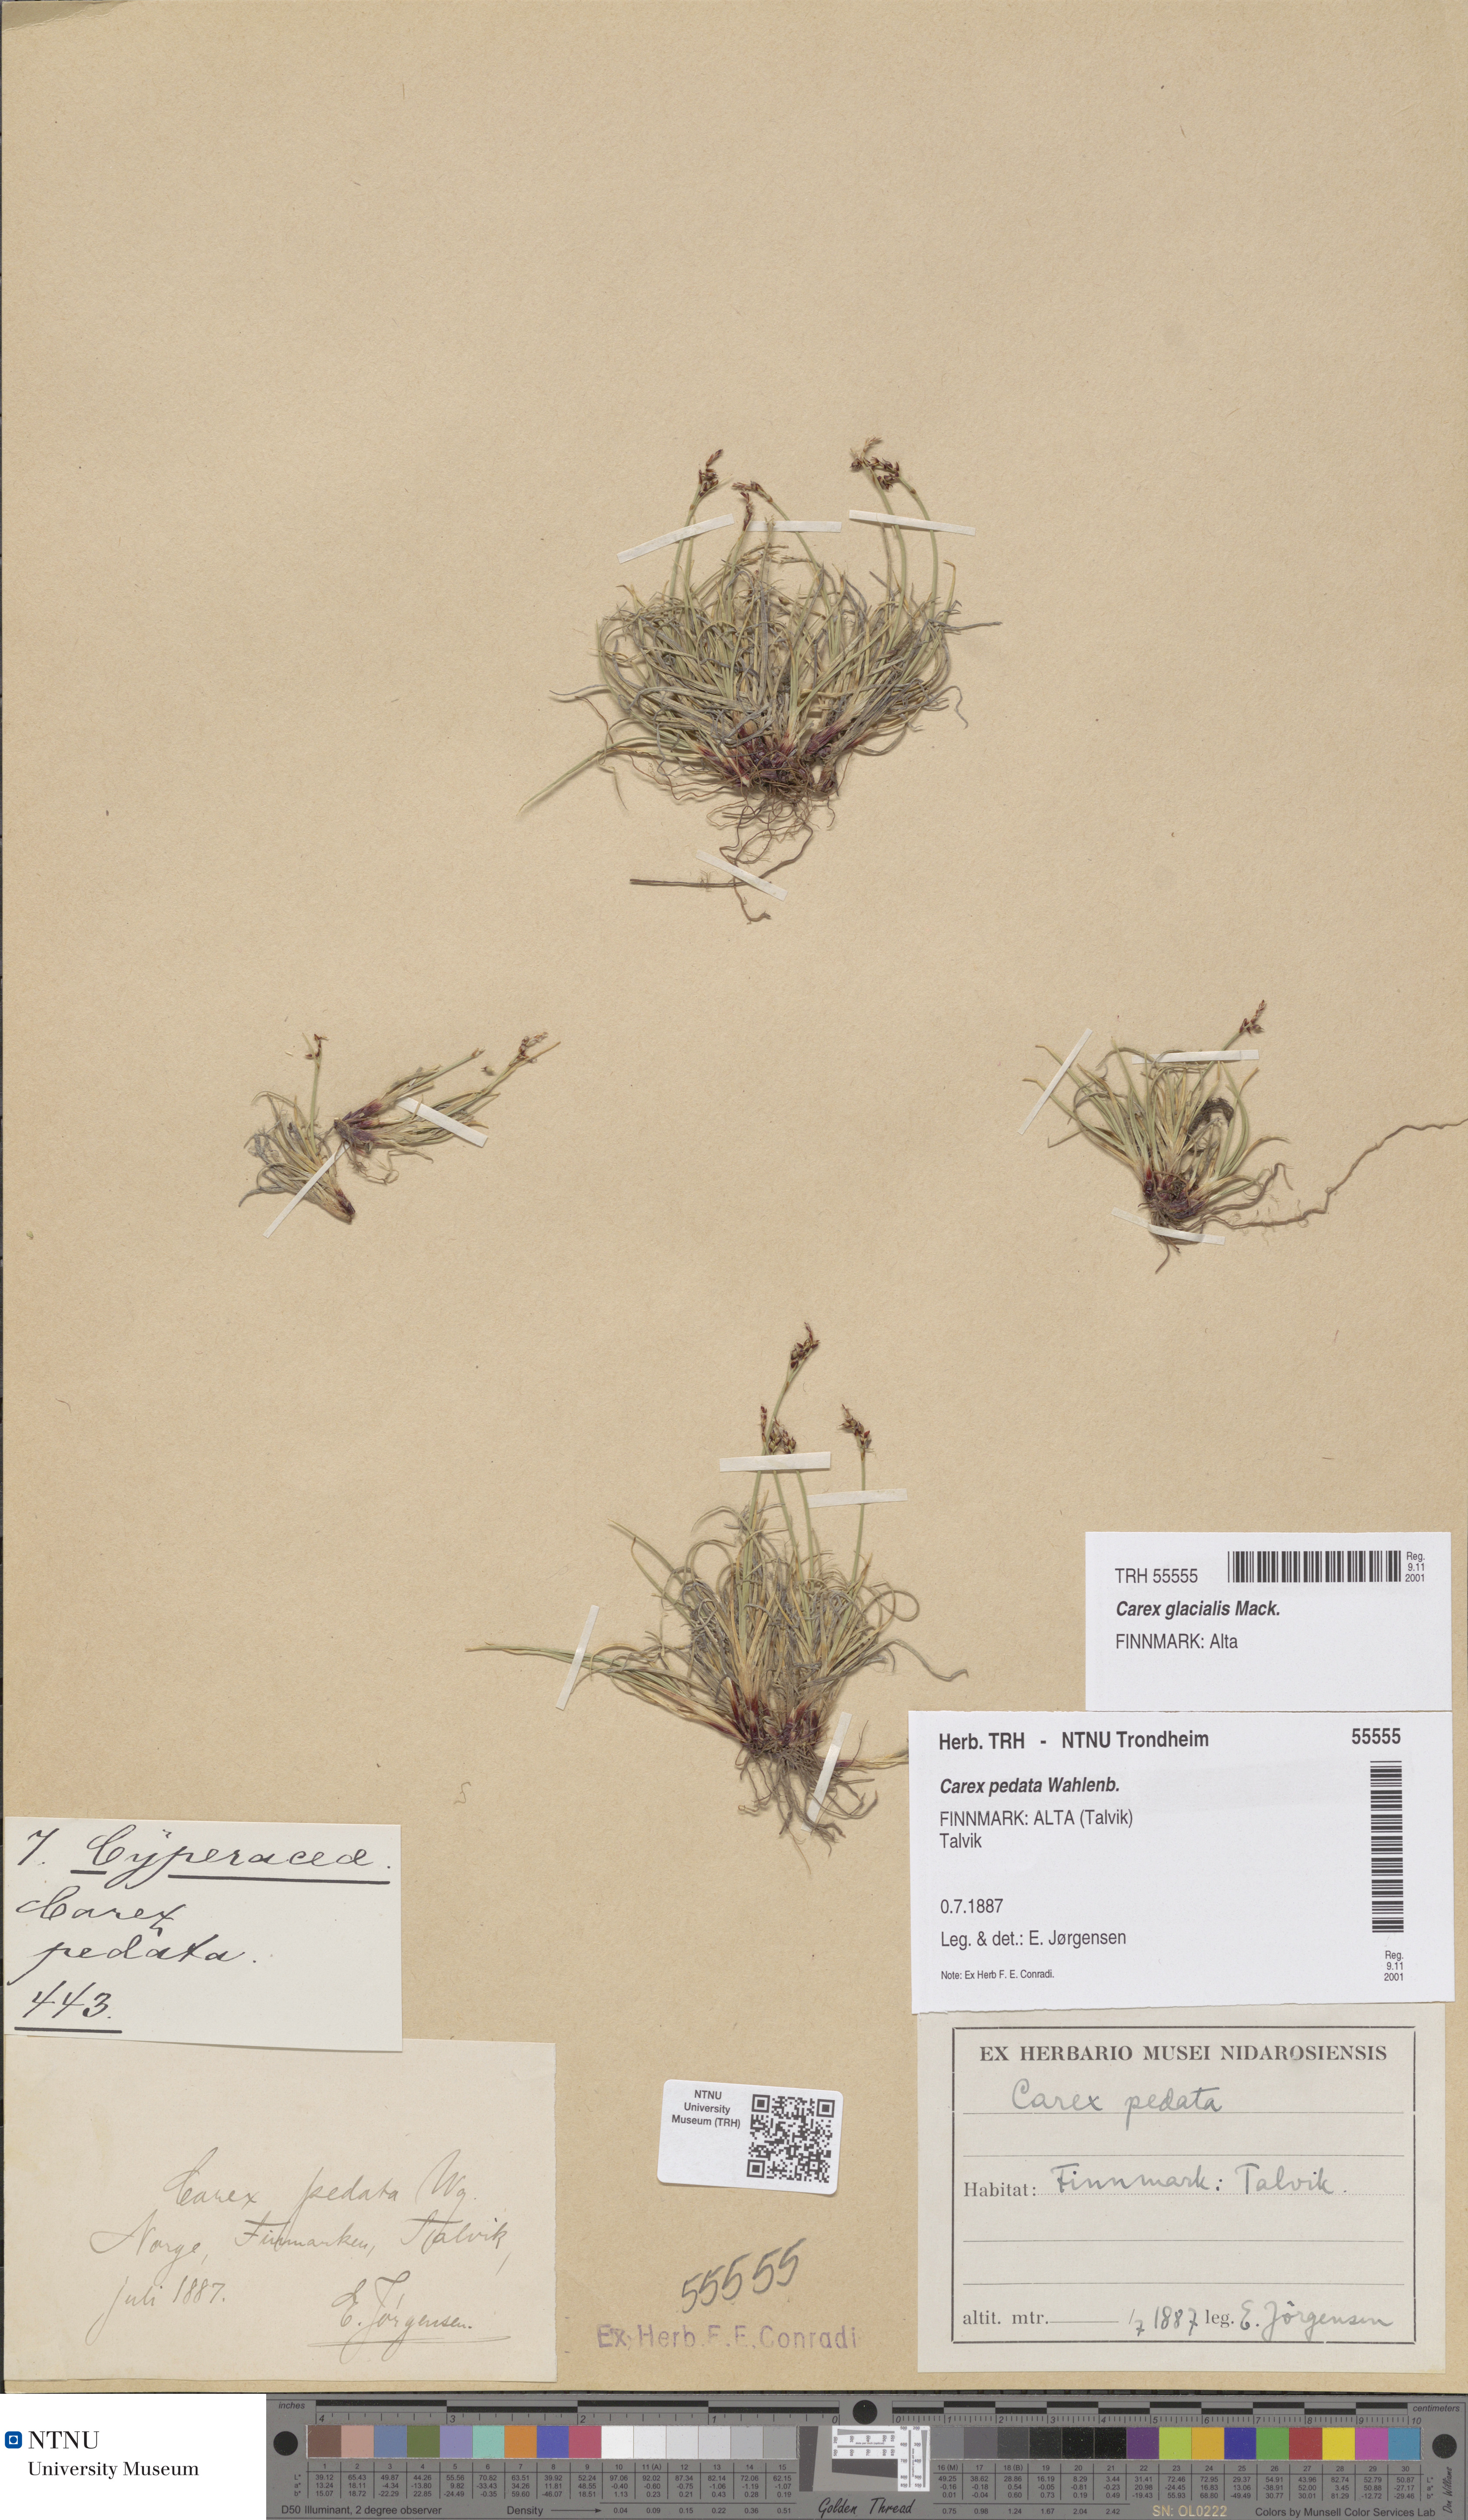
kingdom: Plantae
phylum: Tracheophyta
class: Liliopsida
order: Poales
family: Cyperaceae
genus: Carex
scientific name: Carex glacialis
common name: Newfoundland sedge
